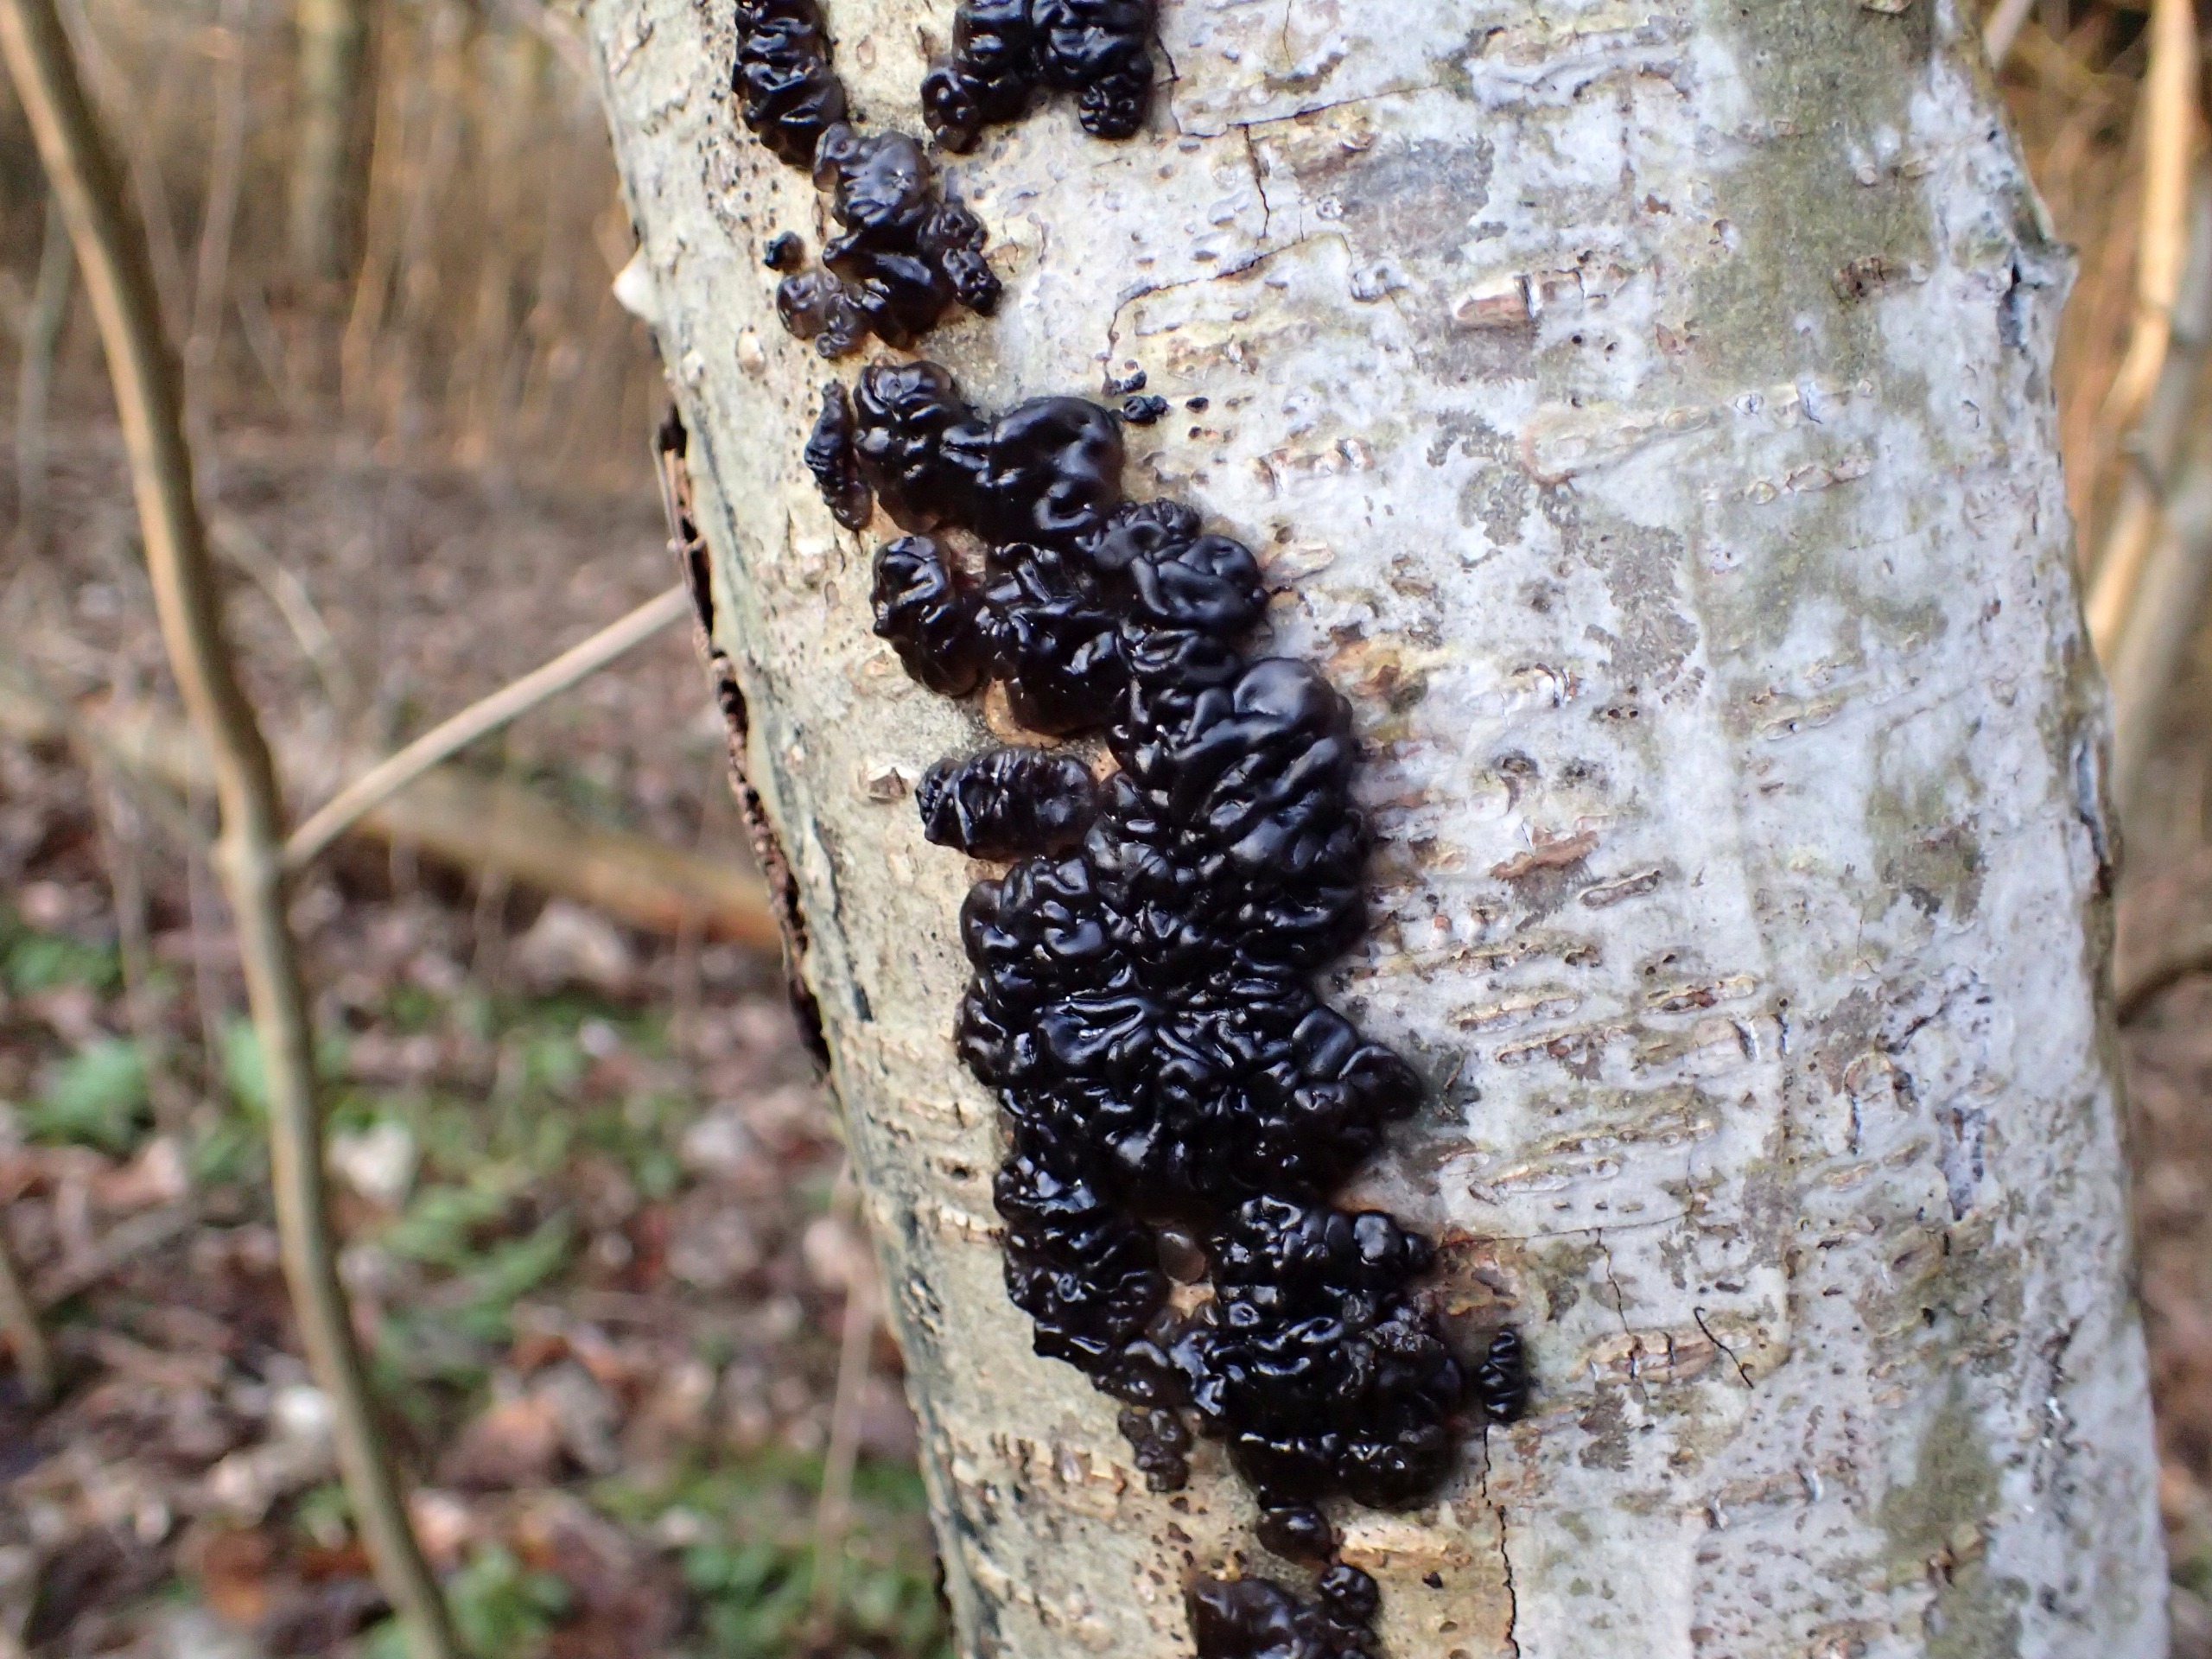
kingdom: Fungi
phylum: Basidiomycota
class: Agaricomycetes
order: Auriculariales
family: Auriculariaceae
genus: Exidia
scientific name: Exidia nigricans
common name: Almindelig bævretop
